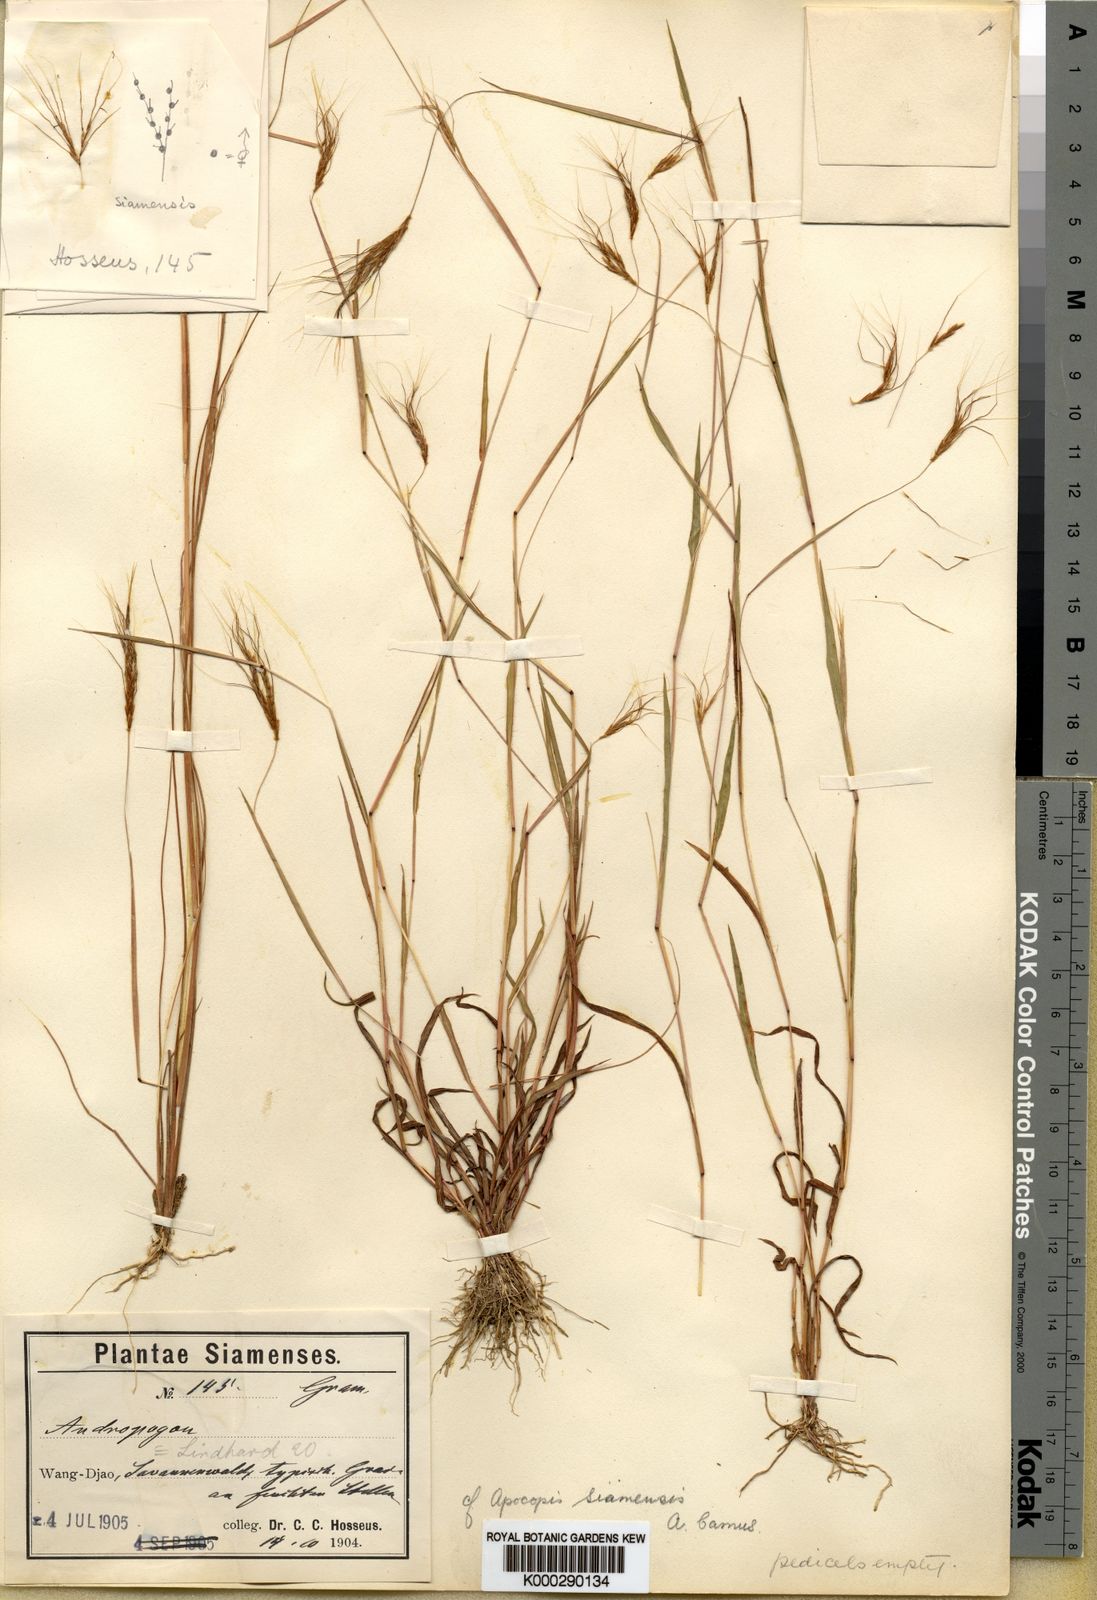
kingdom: Plantae
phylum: Tracheophyta
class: Liliopsida
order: Poales
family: Poaceae
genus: Apocopis
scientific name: Apocopis siamensis
